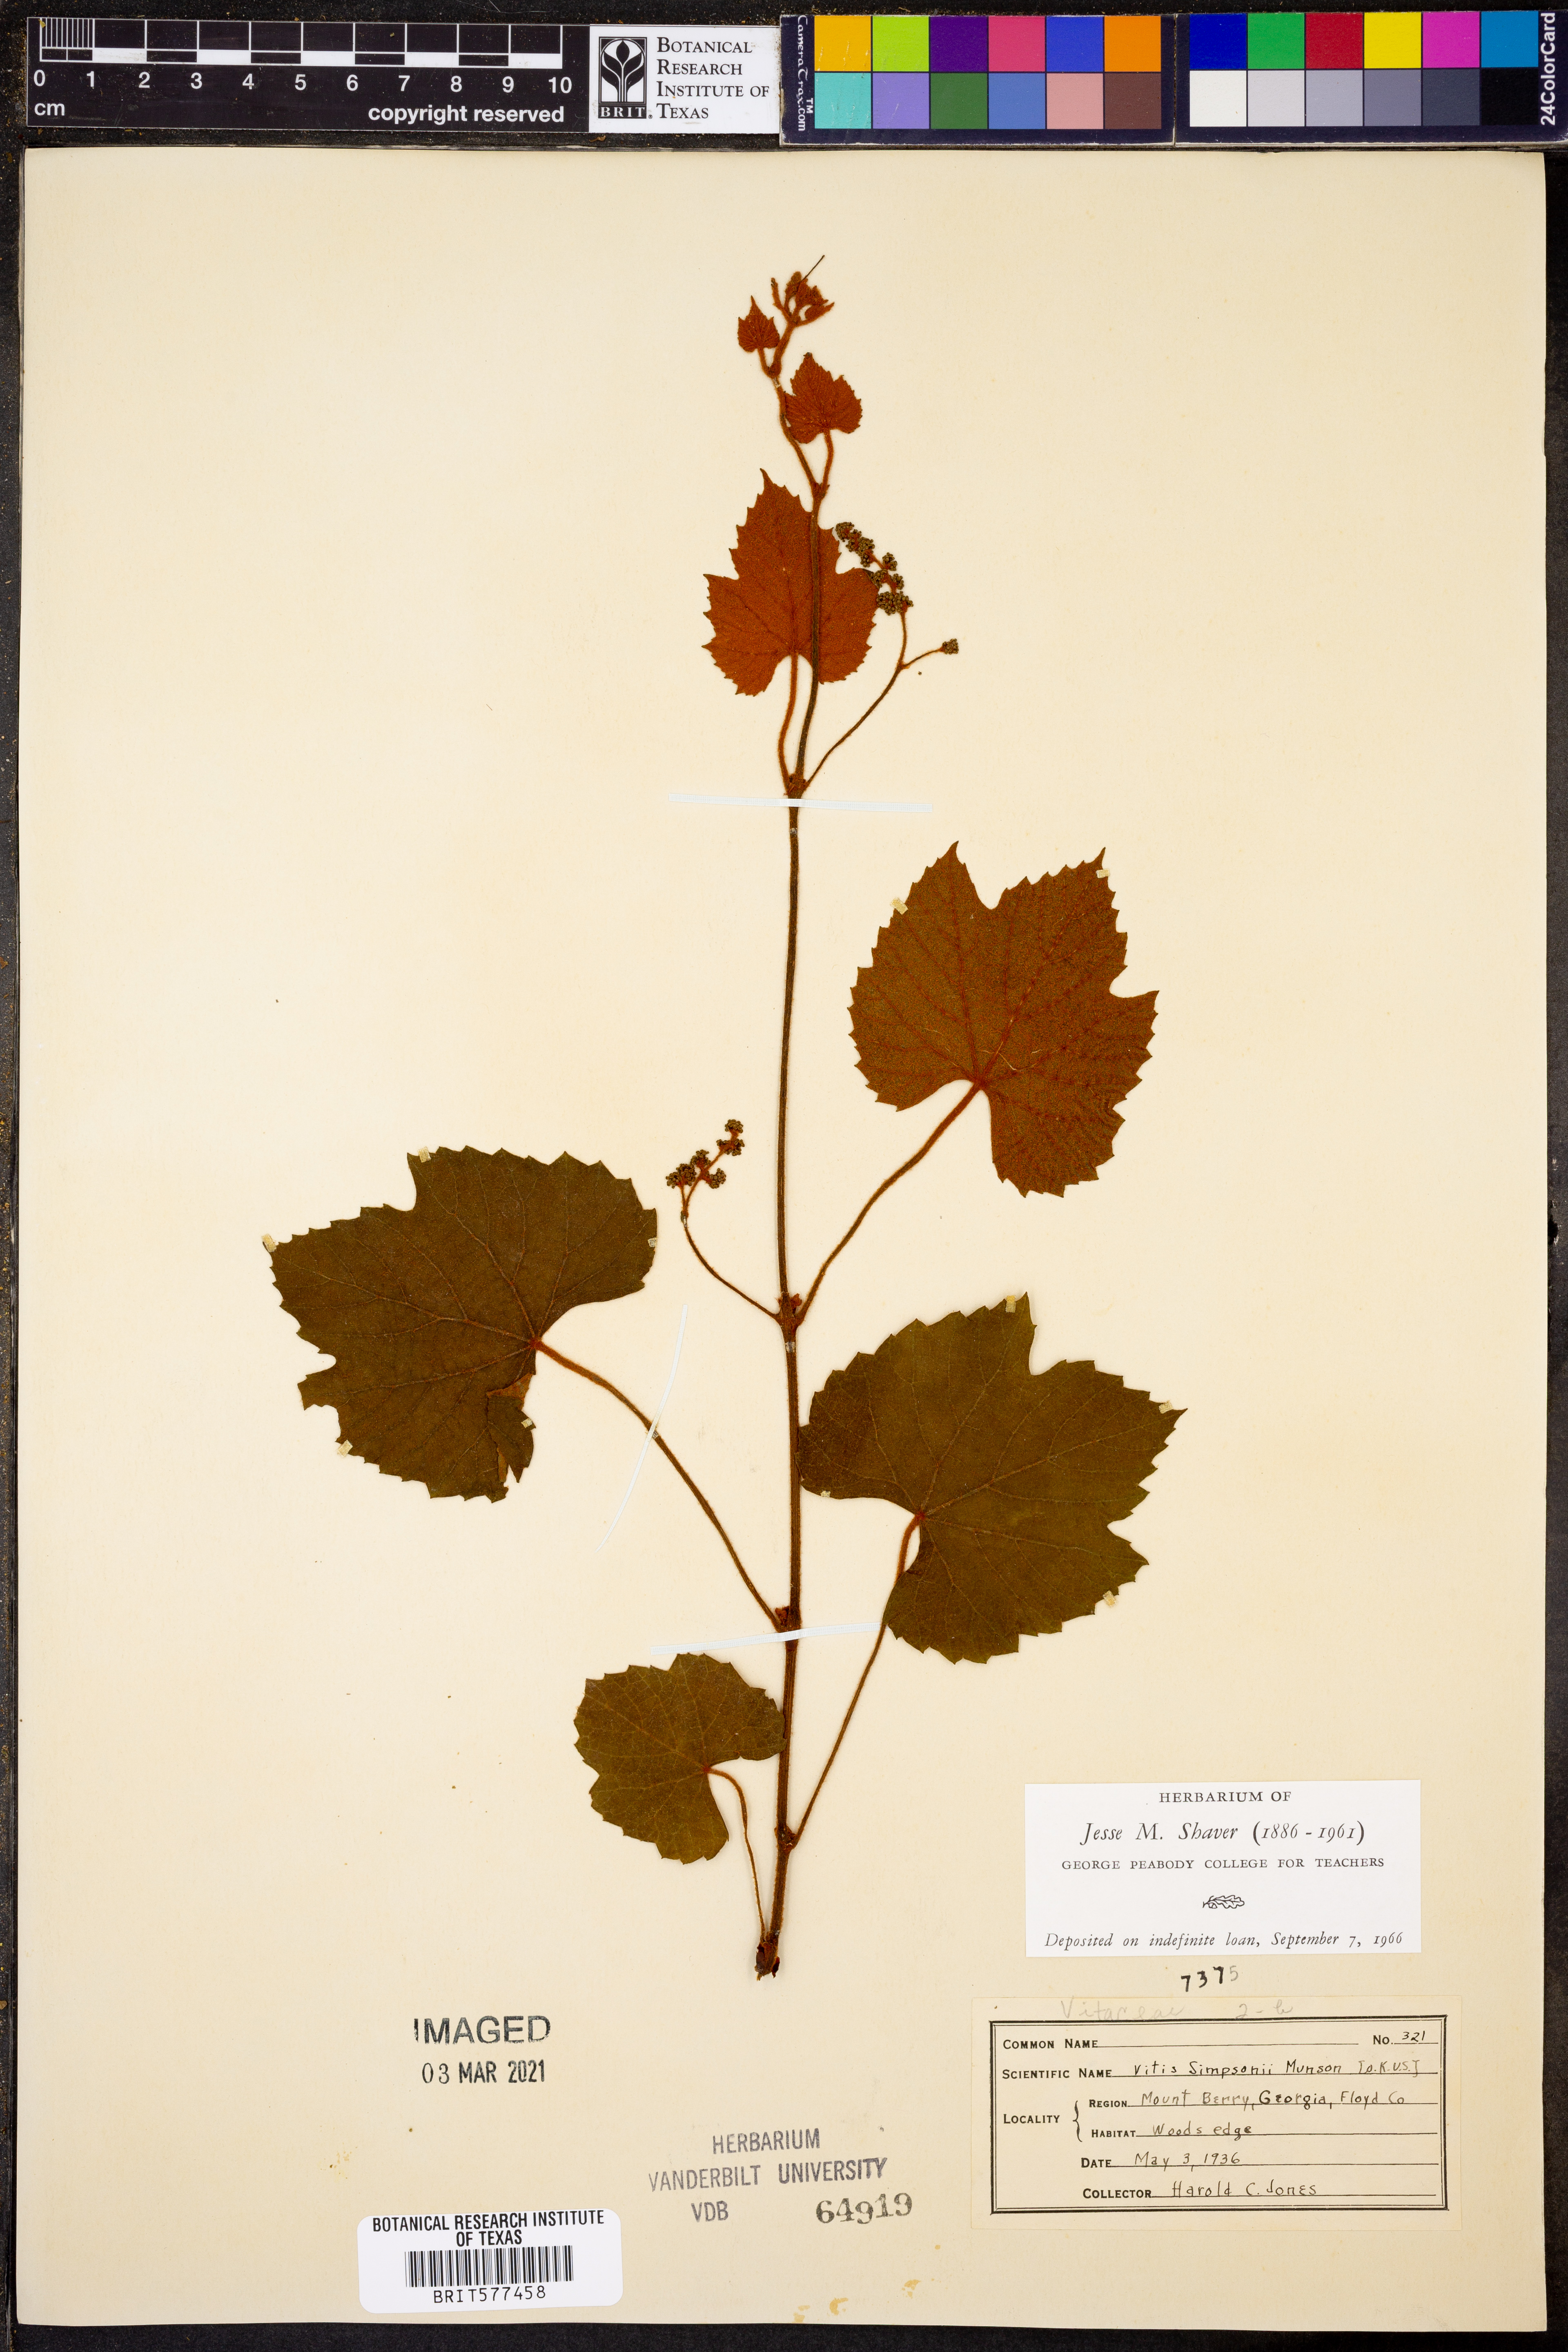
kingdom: Plantae
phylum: Tracheophyta
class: Magnoliopsida
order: Vitales
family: Vitaceae
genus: Vitis
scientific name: Vitis cinerea
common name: Ashy grape
